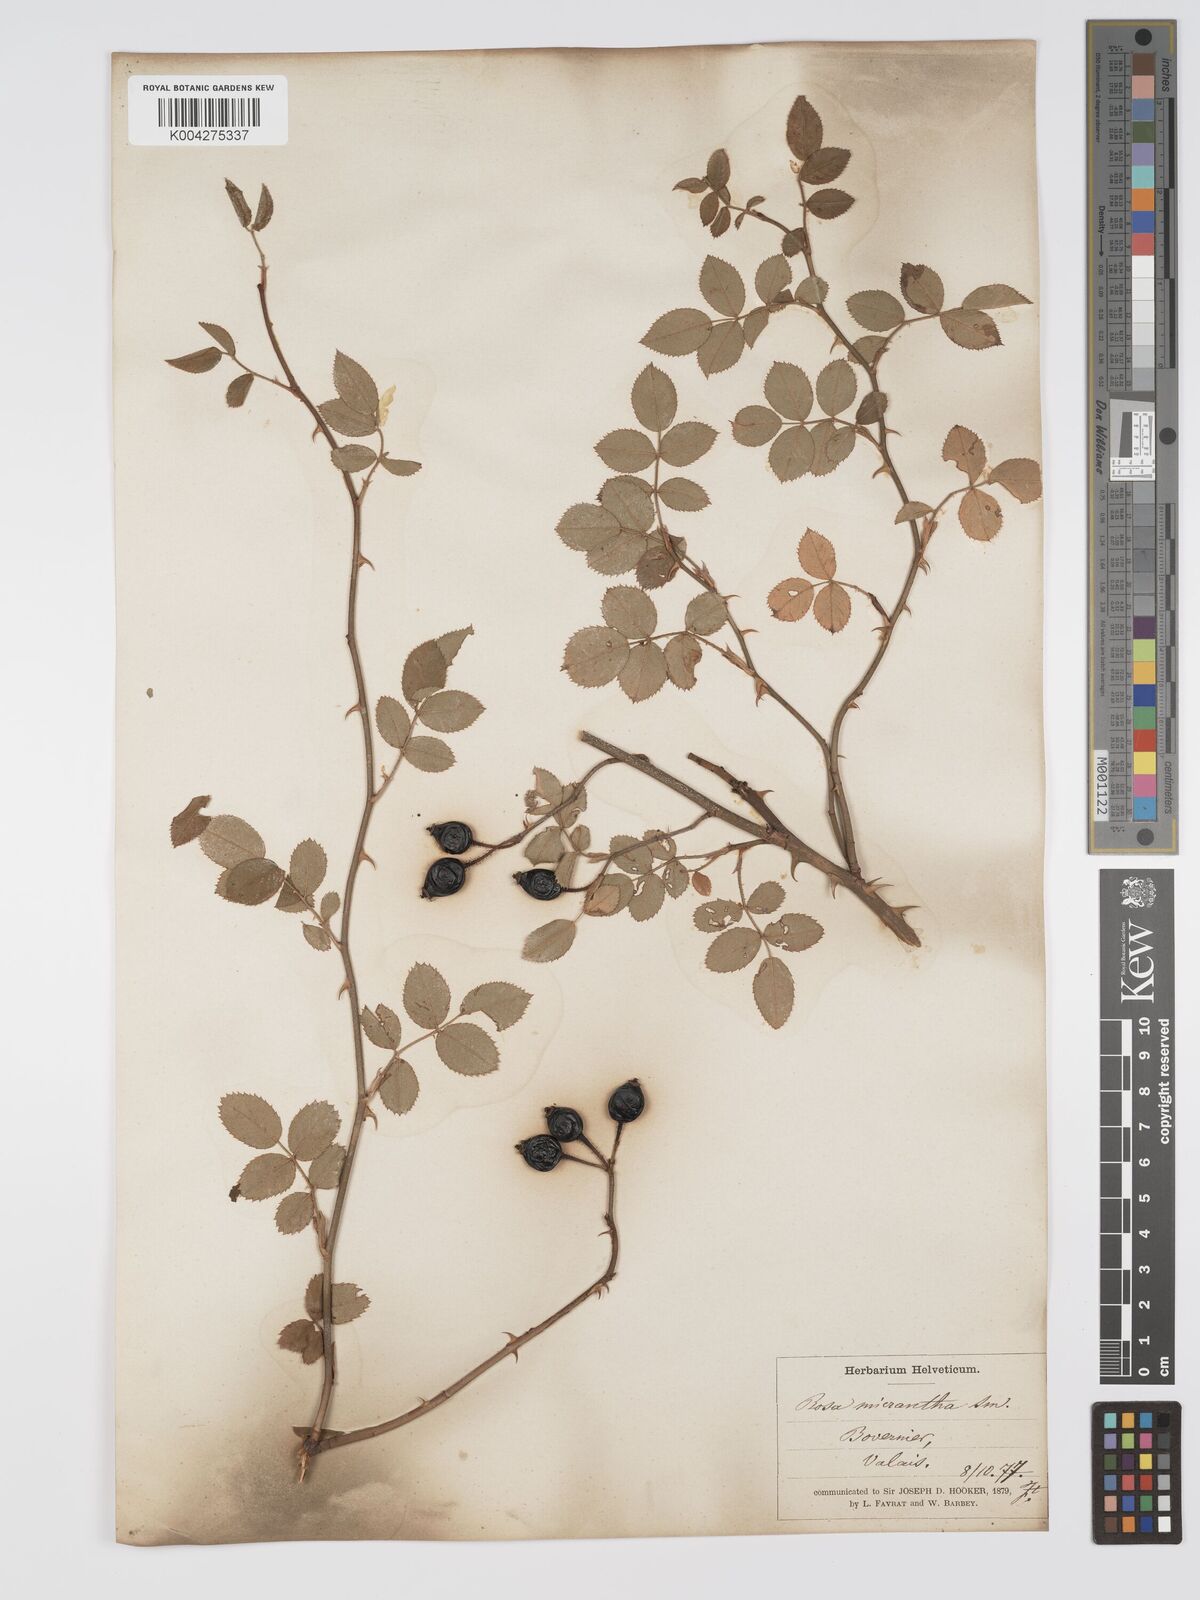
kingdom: Plantae
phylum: Tracheophyta
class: Magnoliopsida
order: Rosales
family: Rosaceae
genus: Rosa
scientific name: Rosa
